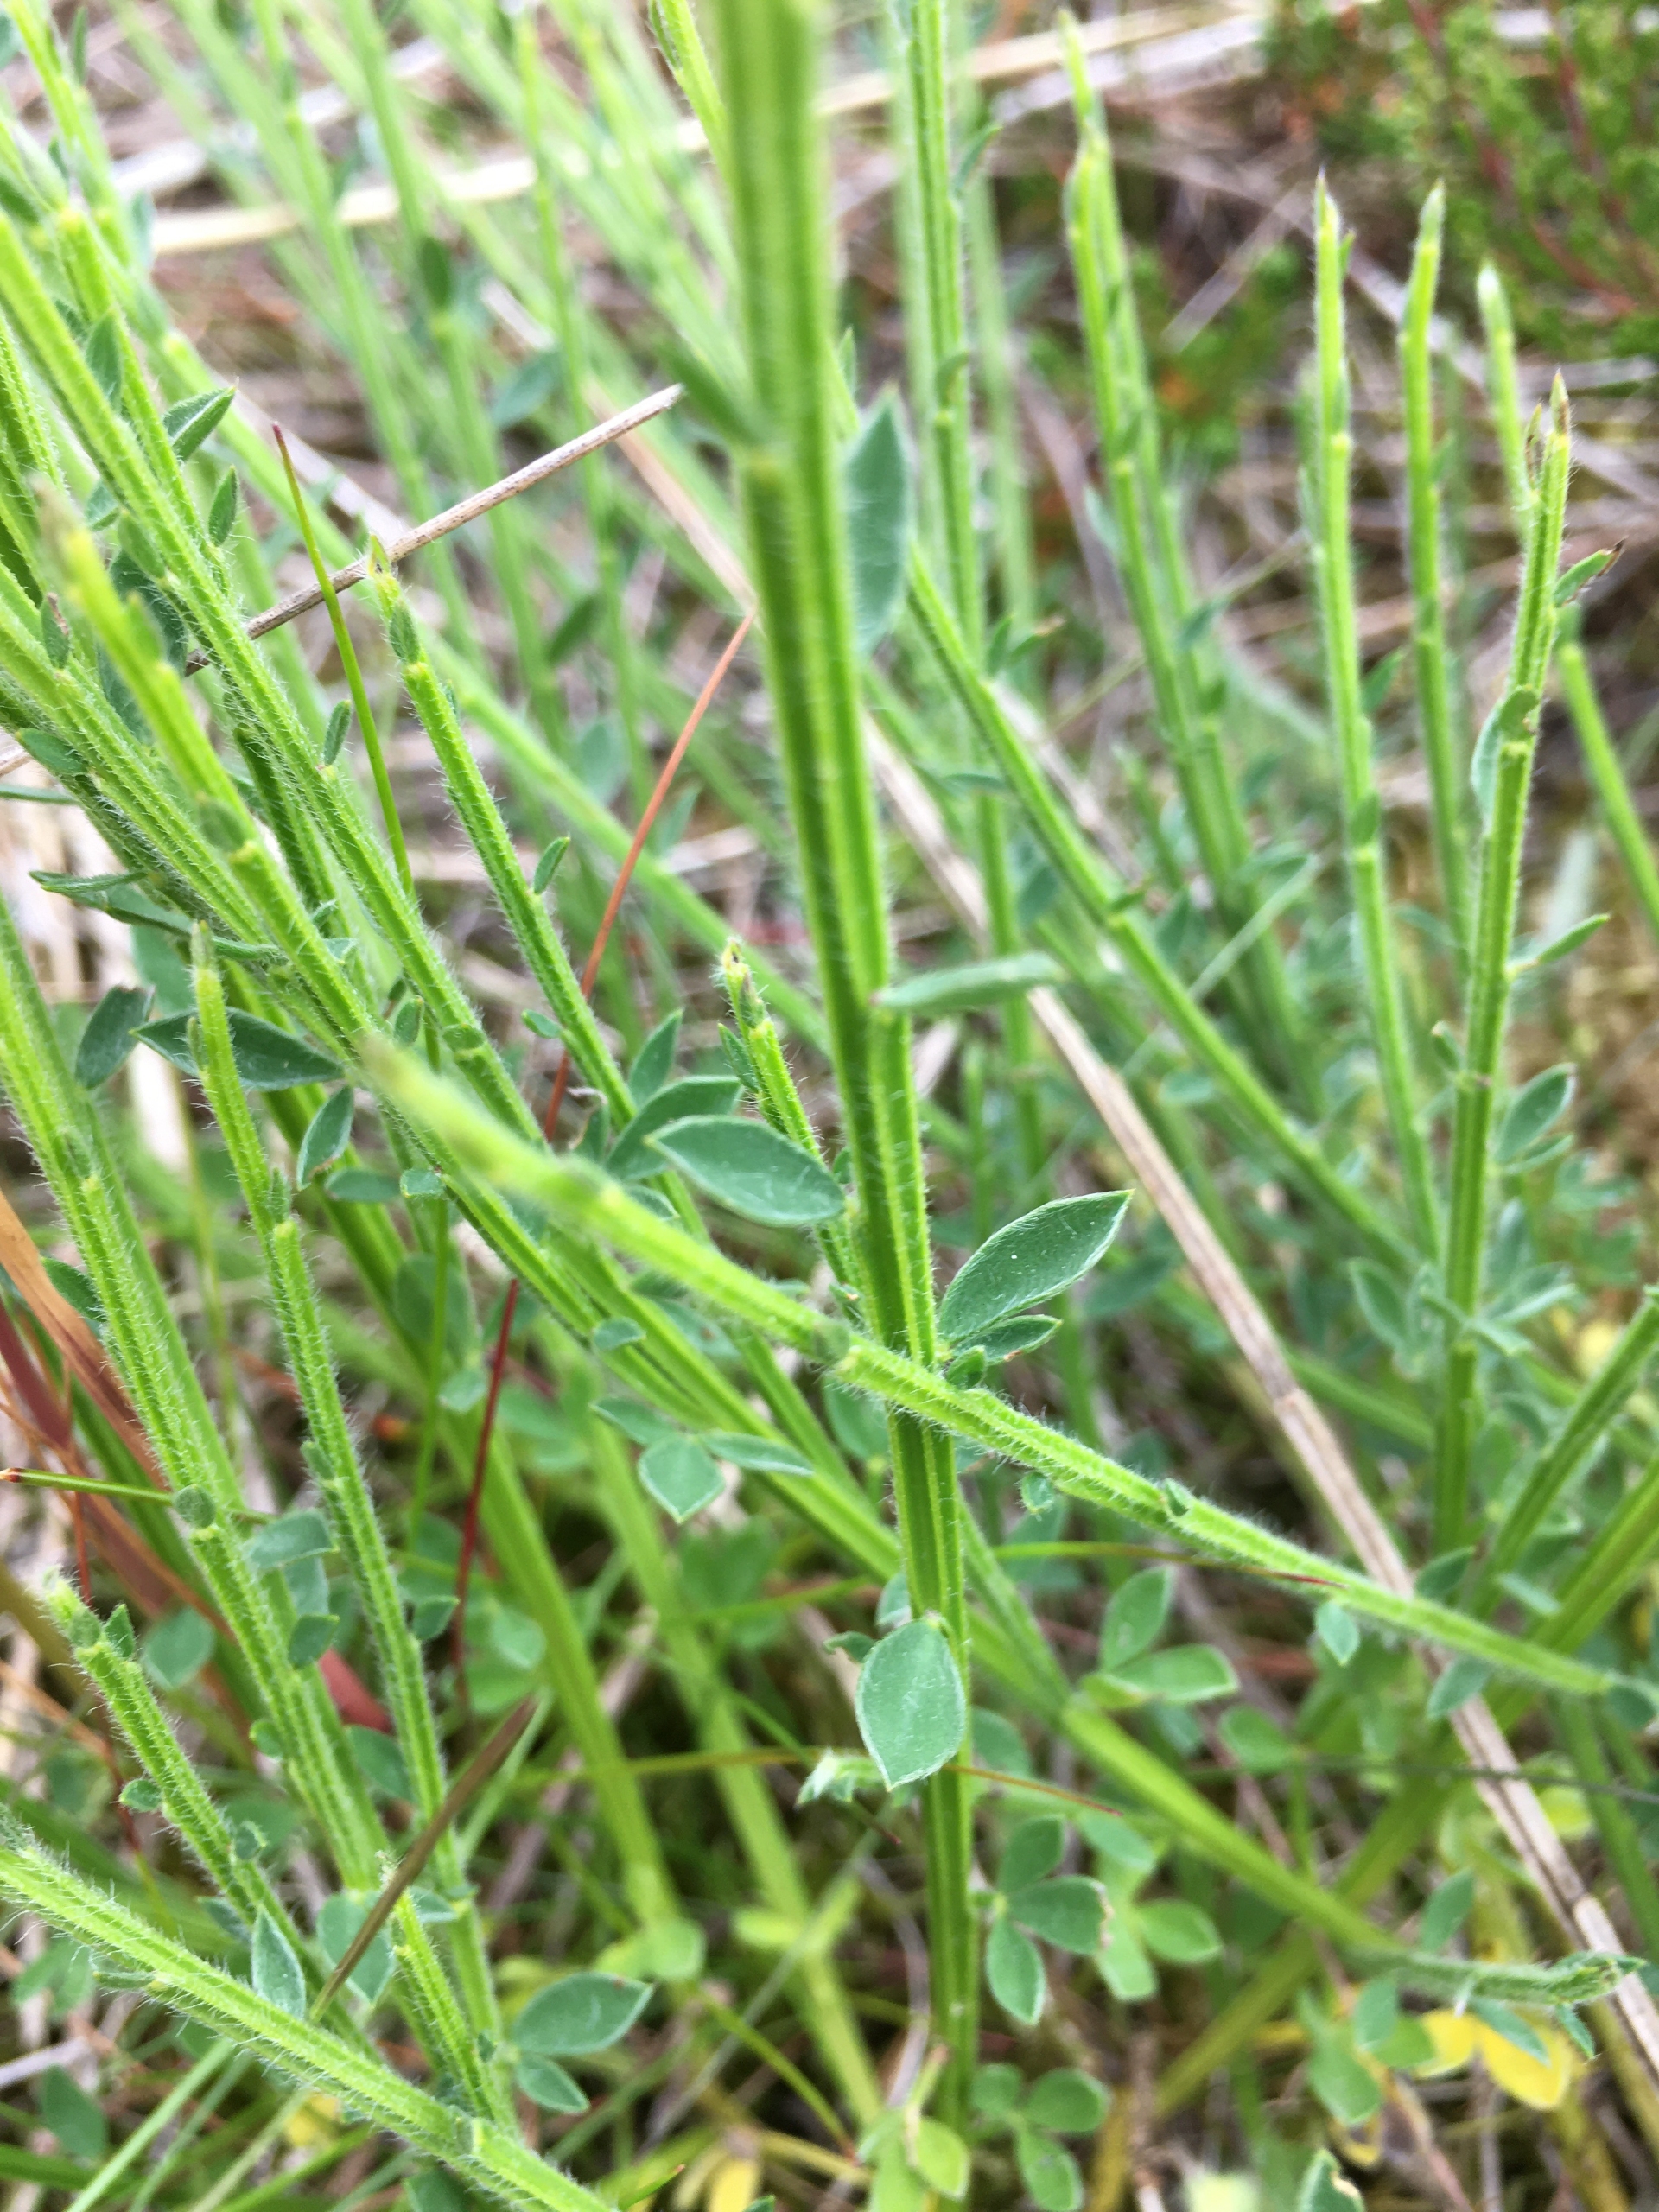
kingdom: Plantae
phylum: Tracheophyta
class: Magnoliopsida
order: Fabales
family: Fabaceae
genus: Cytisus
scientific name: Cytisus scoparius
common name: Almindelig gyvel
